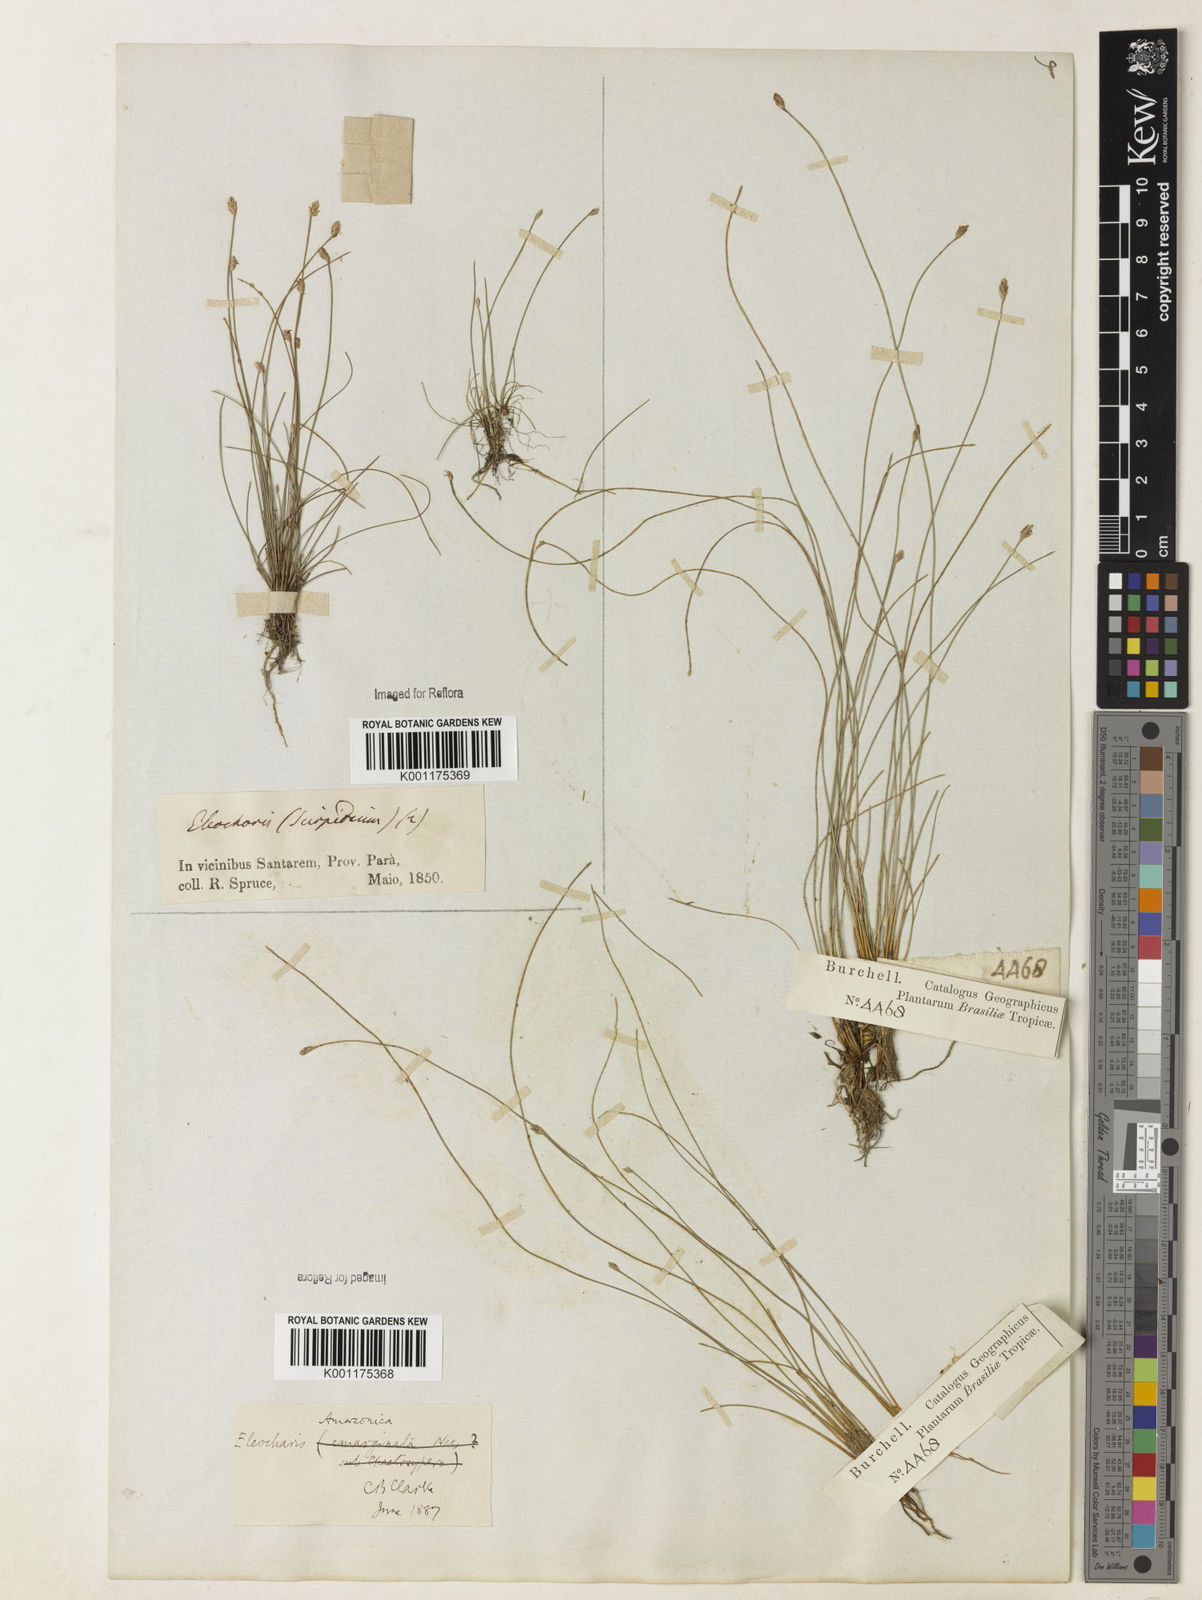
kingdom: Plantae
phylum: Tracheophyta
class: Liliopsida
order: Poales
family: Cyperaceae
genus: Eleocharis
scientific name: Eleocharis amazonica
